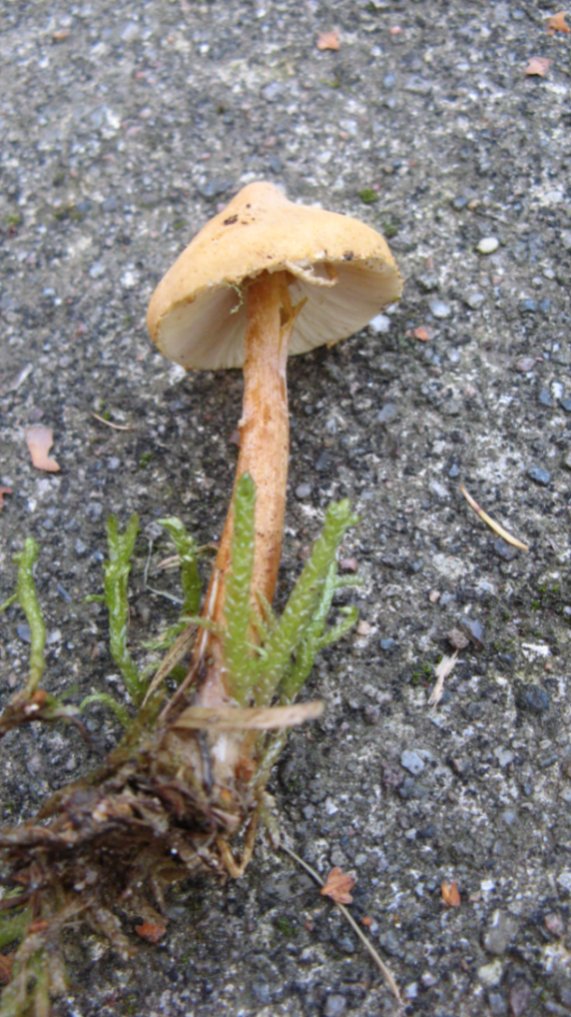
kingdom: Fungi
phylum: Basidiomycota
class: Agaricomycetes
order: Agaricales
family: Tricholomataceae
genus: Cystoderma
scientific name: Cystoderma amianthinum
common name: okkergul grynhat
